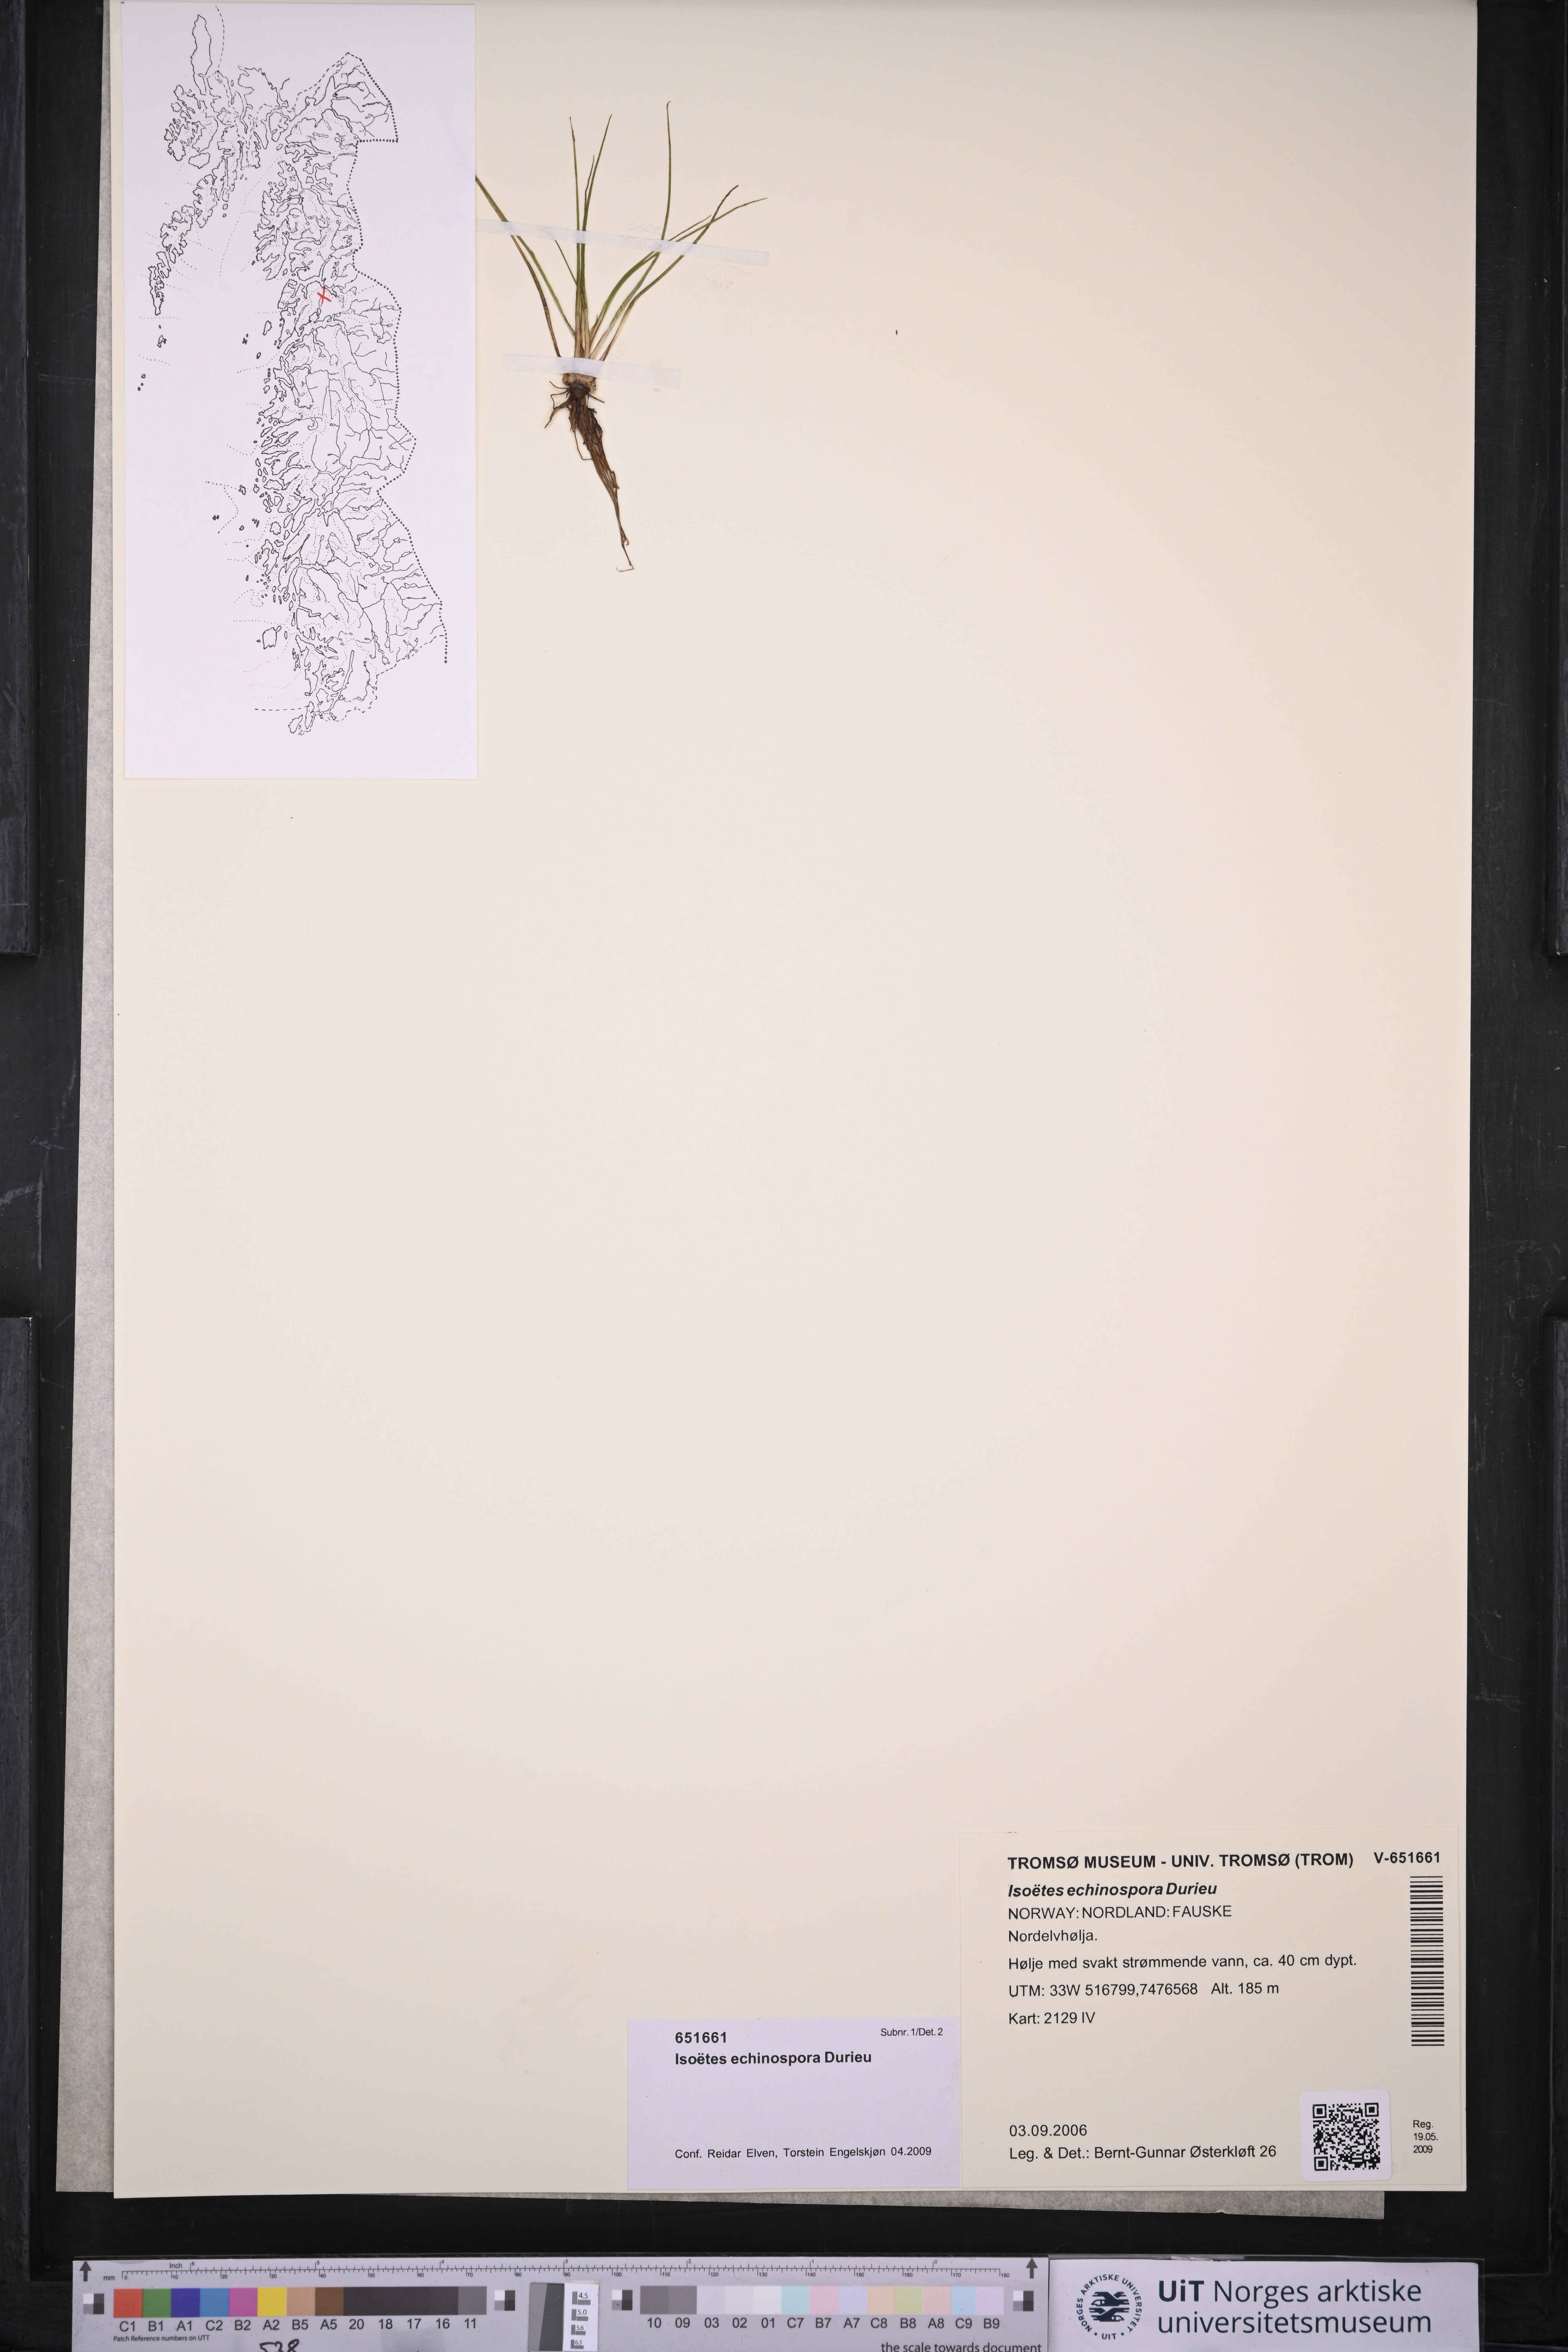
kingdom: Plantae
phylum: Tracheophyta
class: Lycopodiopsida
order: Isoetales
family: Isoetaceae
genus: Isoetes
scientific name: Isoetes echinospora
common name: Spring quillwort
